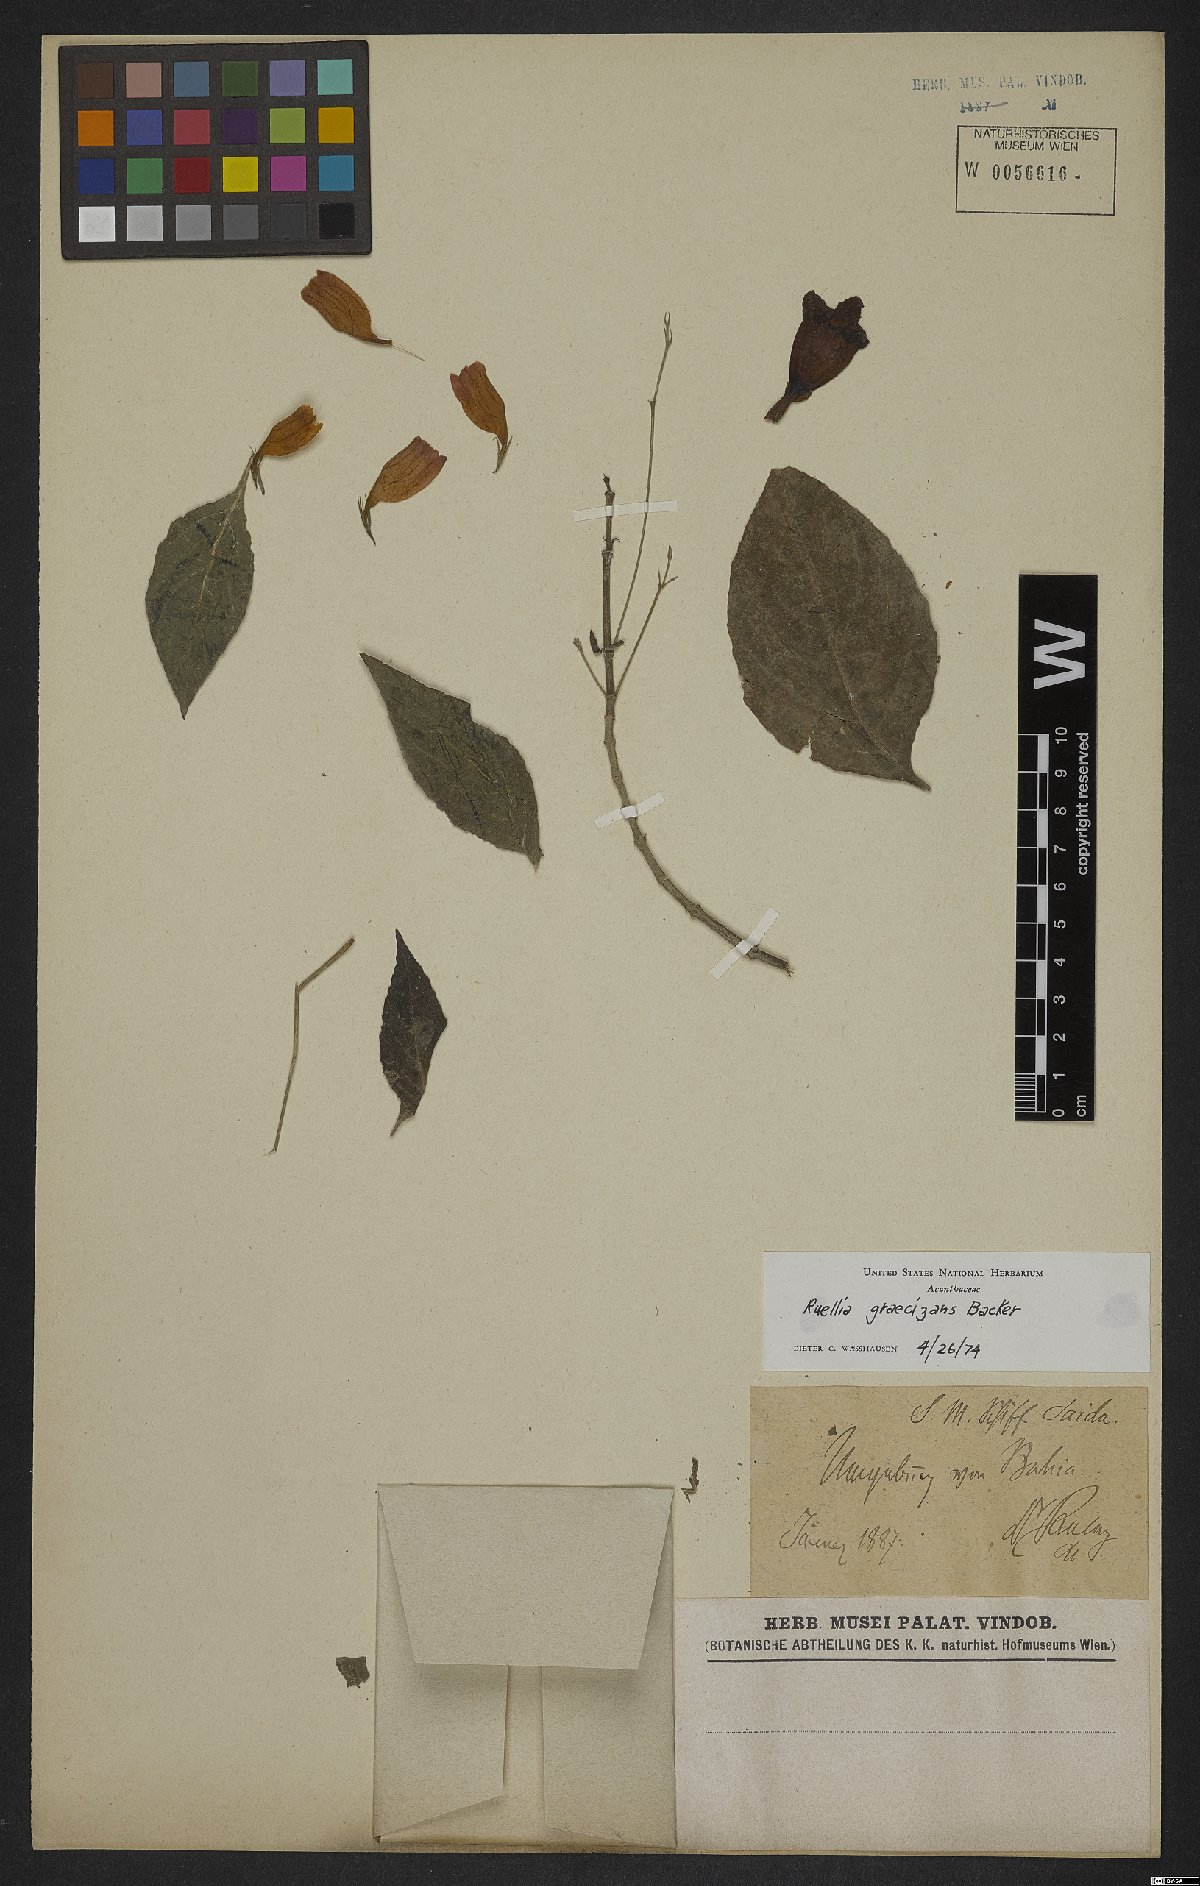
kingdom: Plantae
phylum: Tracheophyta
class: Magnoliopsida
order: Lamiales
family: Acanthaceae
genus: Ruellia
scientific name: Ruellia brevifolia
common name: Tropical wild petunia
